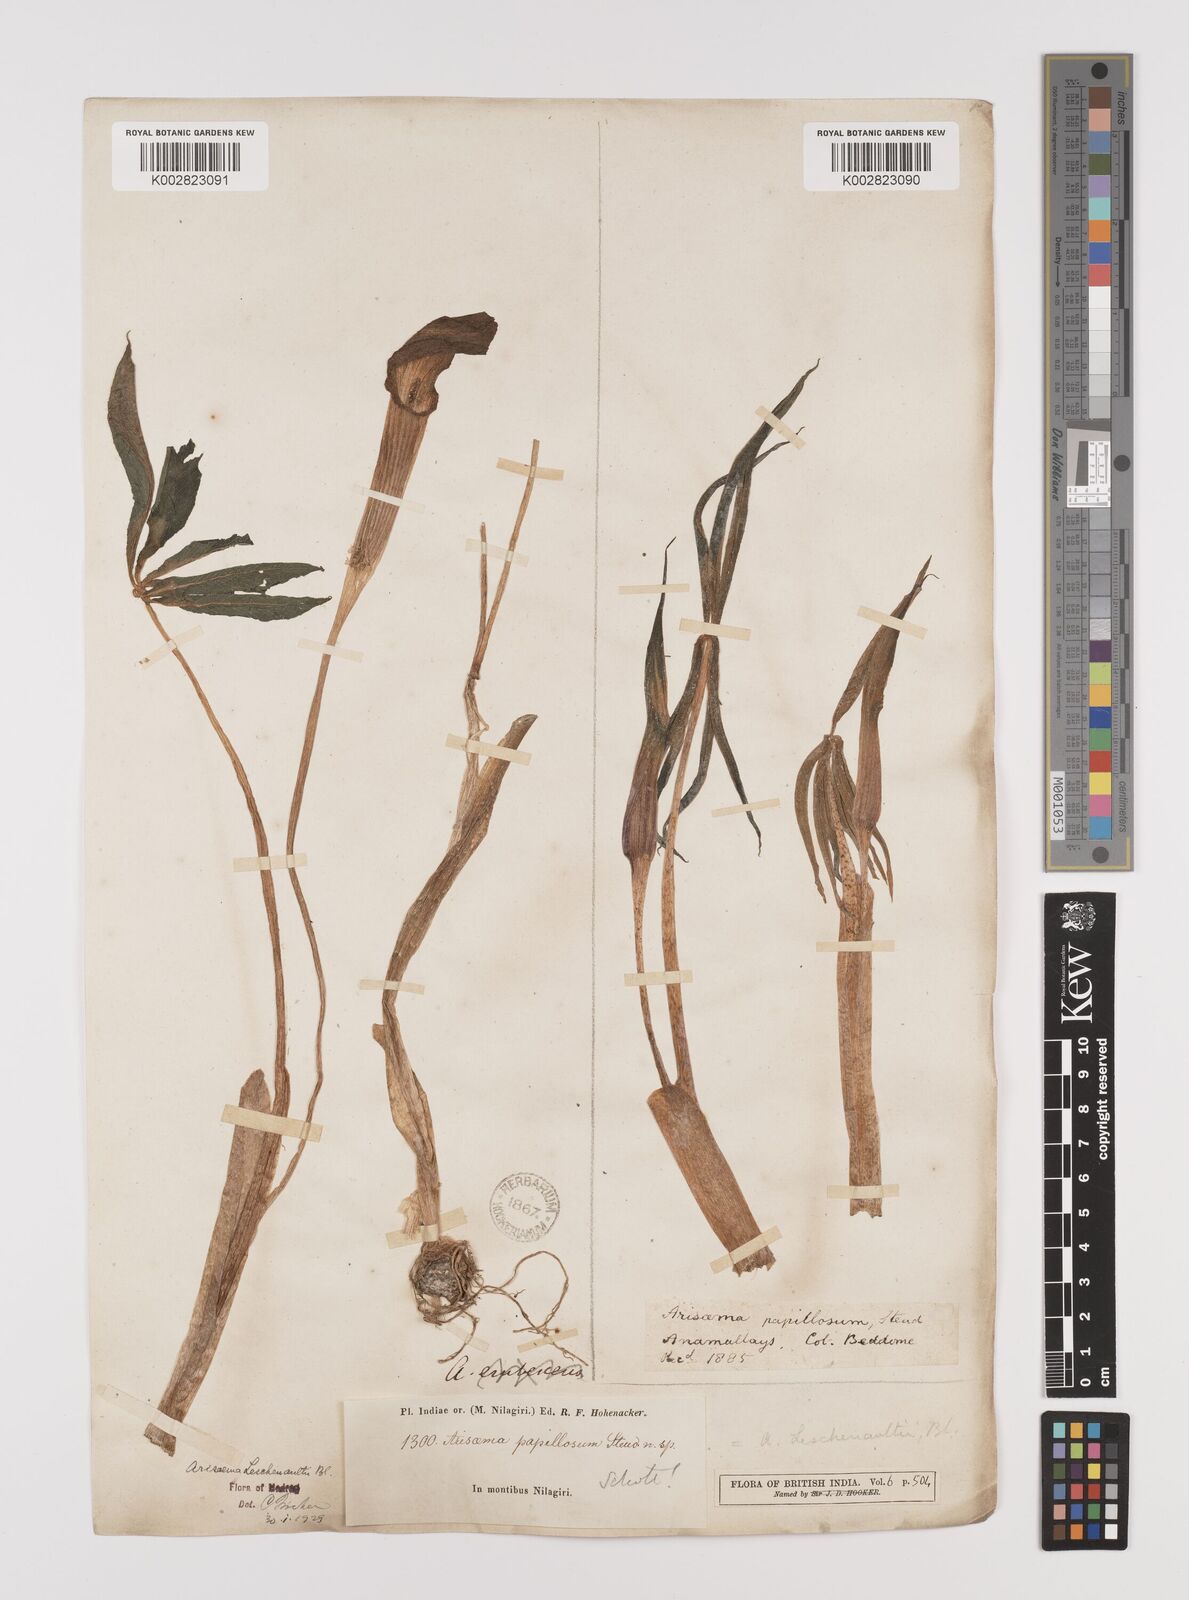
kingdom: Plantae
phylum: Tracheophyta
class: Liliopsida
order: Alismatales
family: Araceae
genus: Arisaema
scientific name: Arisaema leschenaultii
